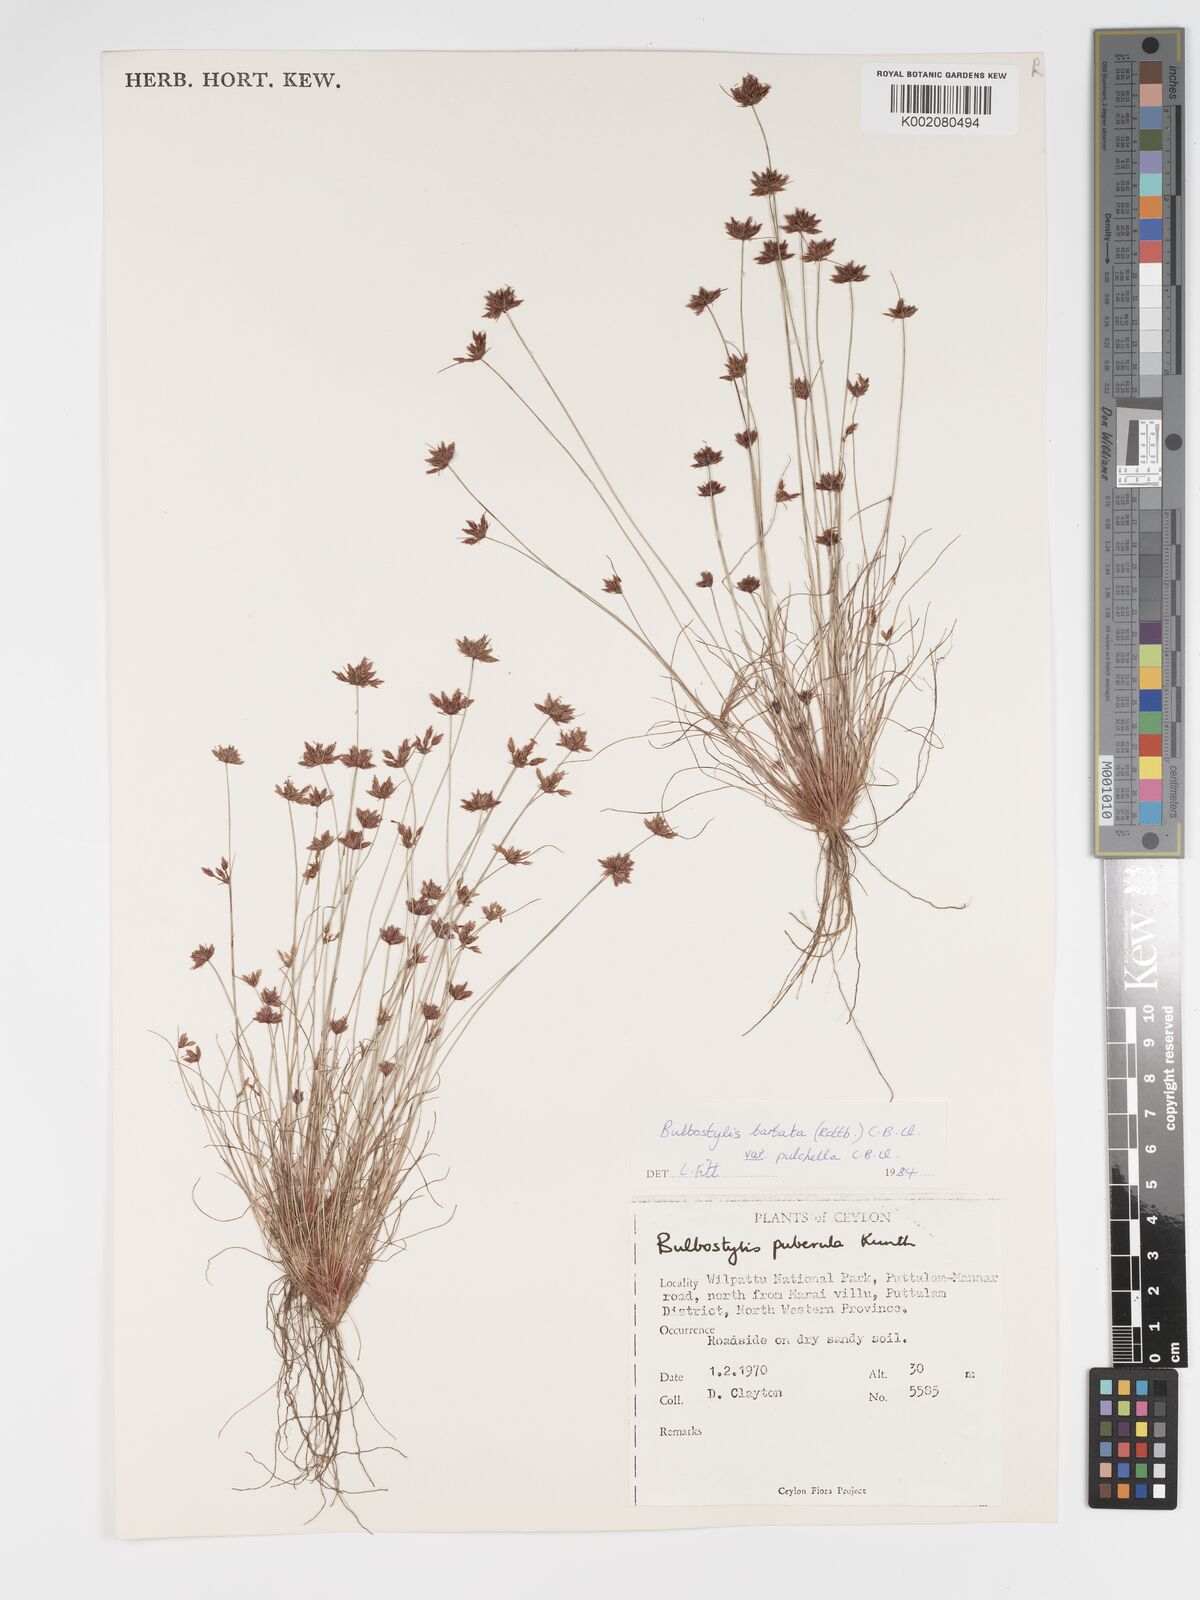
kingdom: Plantae
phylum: Tracheophyta
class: Liliopsida
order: Poales
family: Cyperaceae
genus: Bulbostylis
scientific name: Bulbostylis barbata
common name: Watergrass
